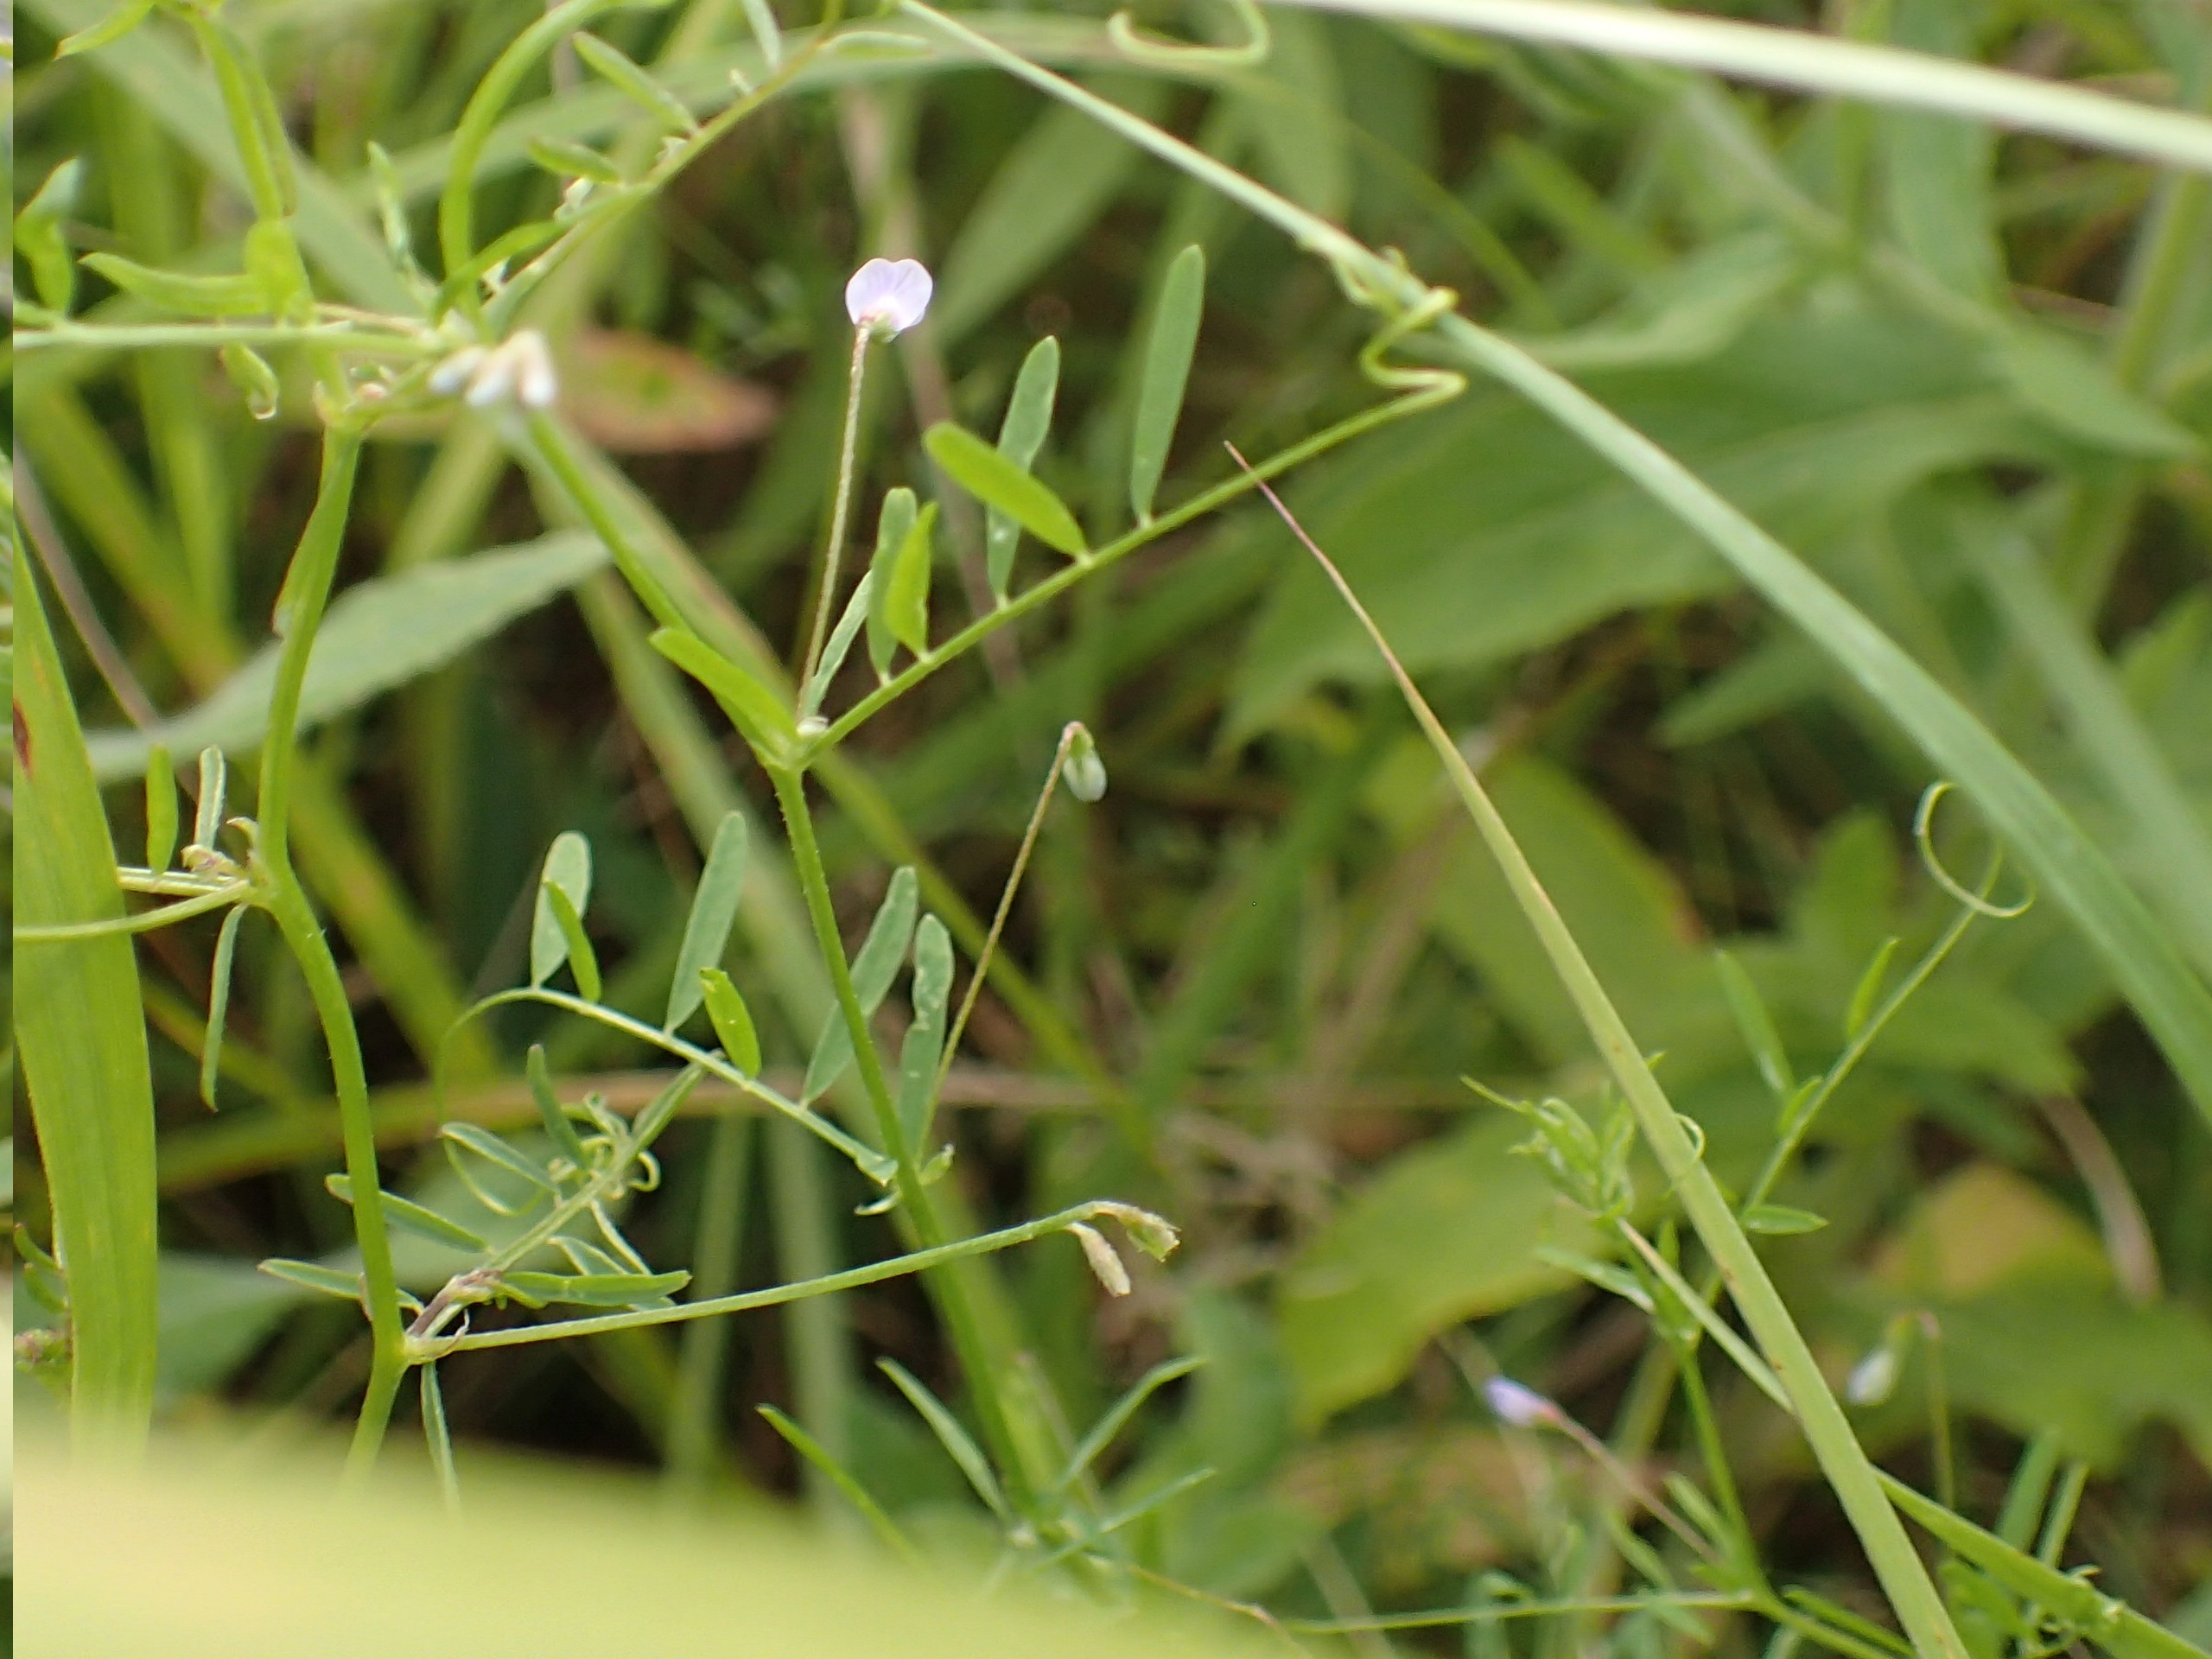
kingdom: Plantae
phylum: Tracheophyta
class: Magnoliopsida
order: Fabales
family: Fabaceae
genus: Vicia
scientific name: Vicia tetrasperma
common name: Tadder-vikke
